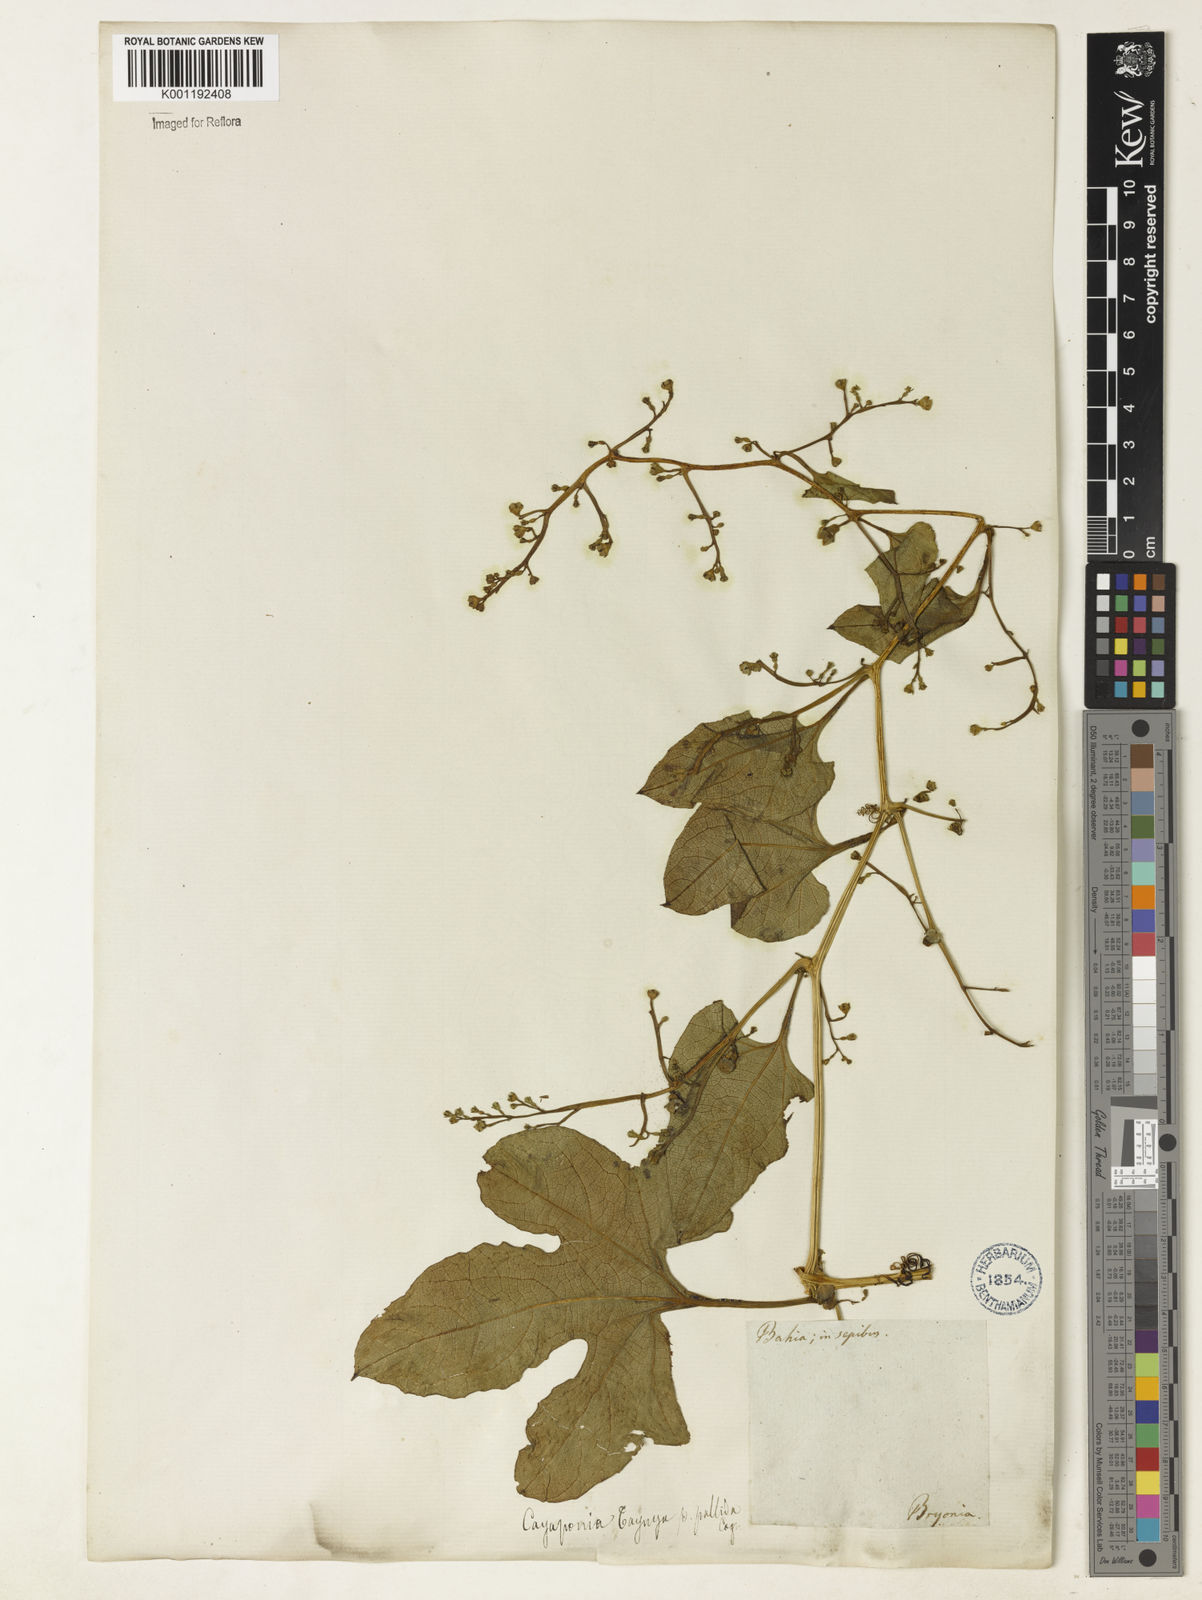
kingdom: Plantae
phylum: Tracheophyta
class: Magnoliopsida
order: Cucurbitales
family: Cucurbitaceae
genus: Cayaponia
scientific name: Cayaponia tayuya
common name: Tayuya
